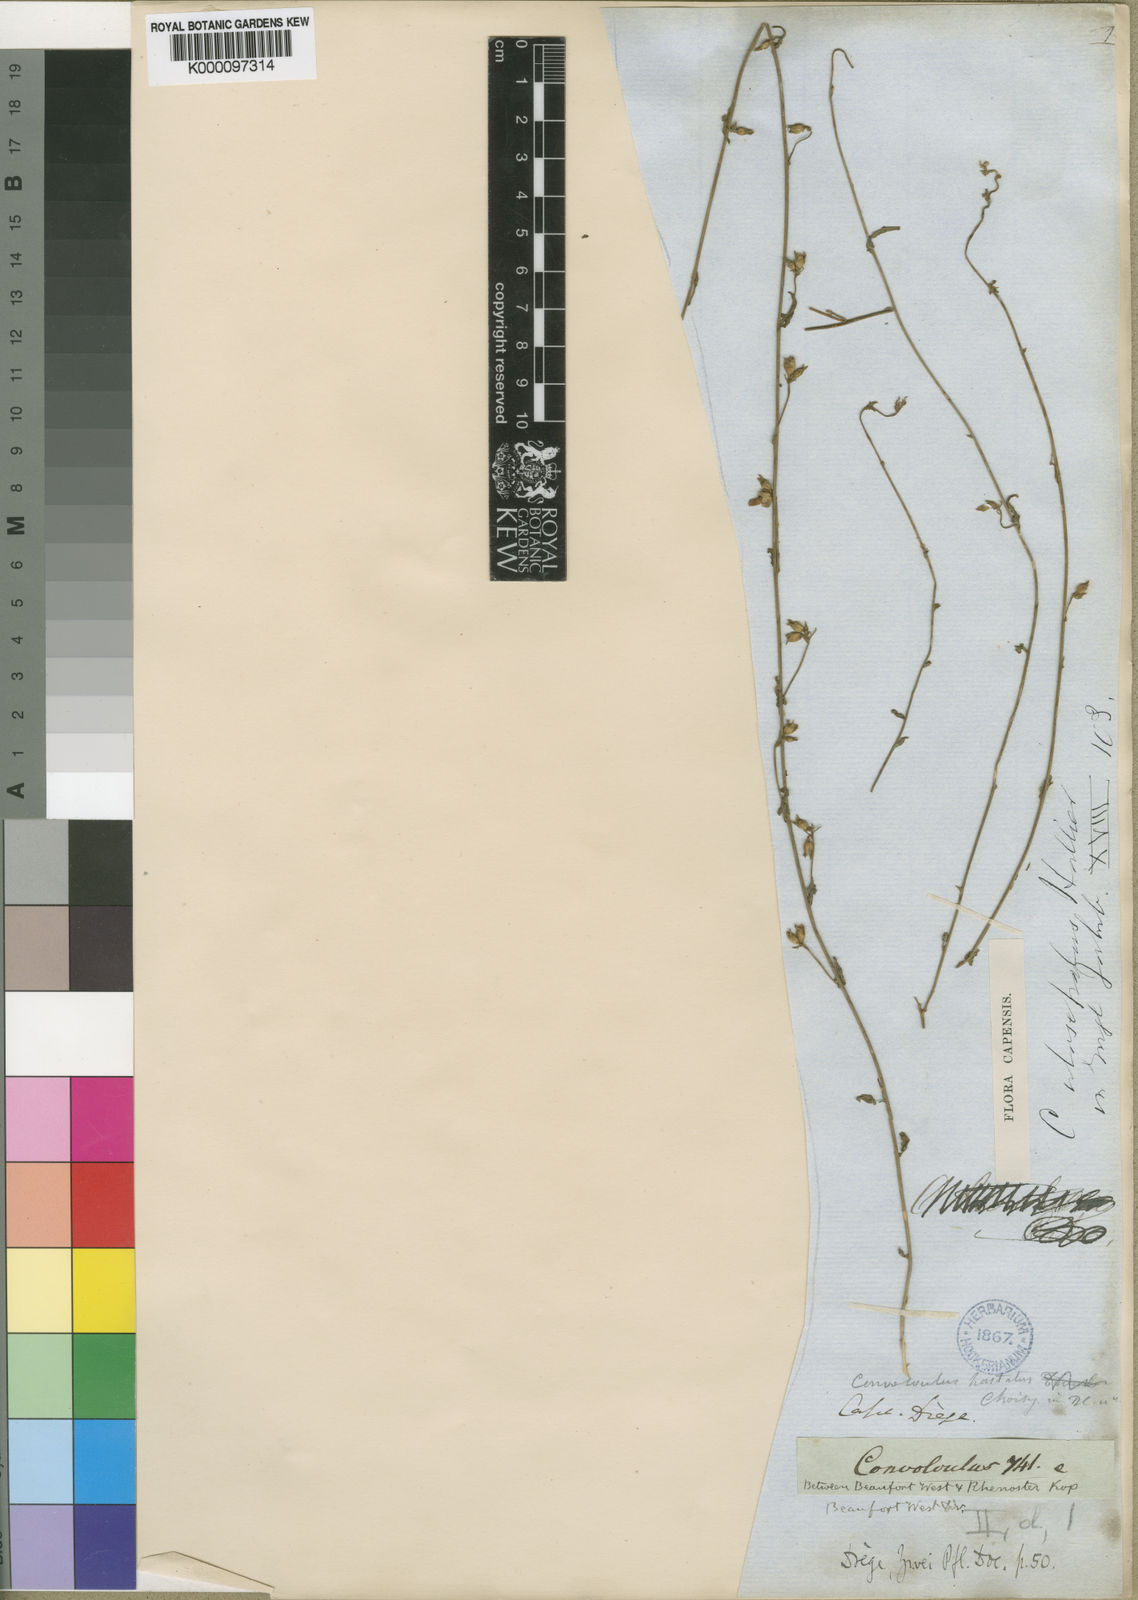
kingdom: Plantae
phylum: Tracheophyta
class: Magnoliopsida
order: Solanales
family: Convolvulaceae
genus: Convolvulus
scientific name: Convolvulus aschersonii
